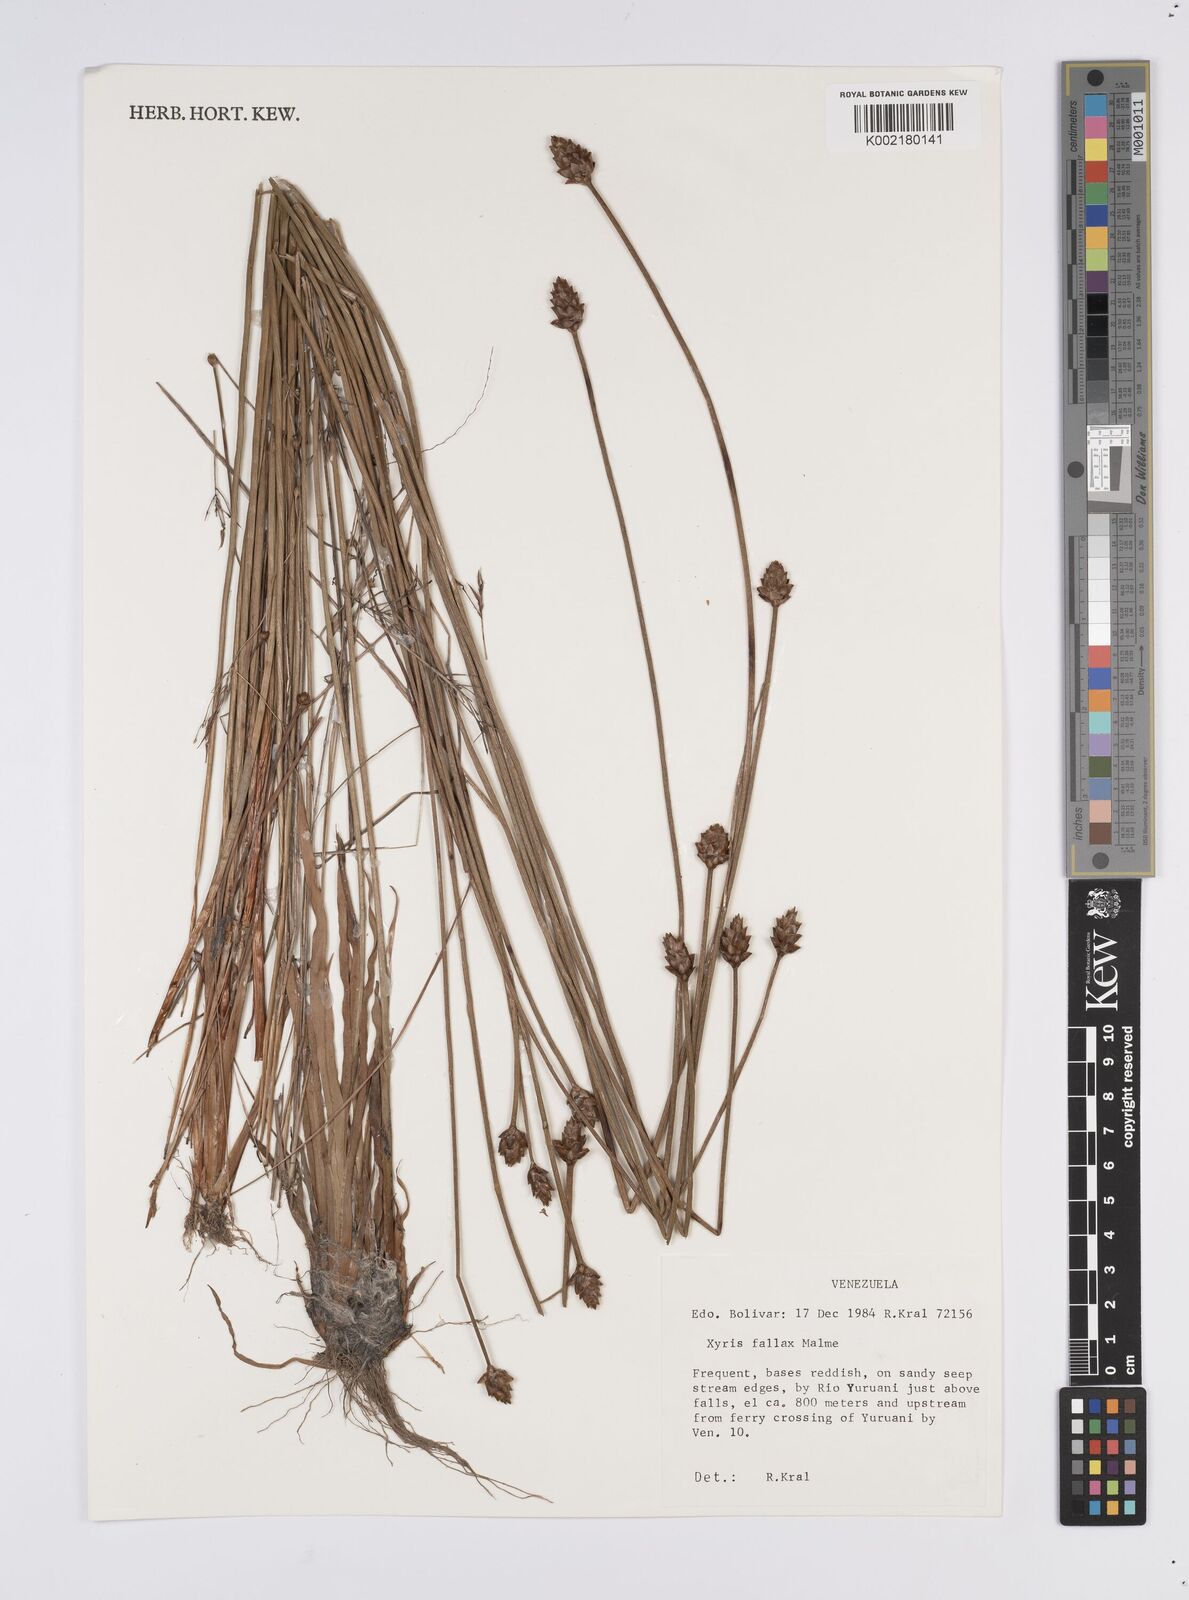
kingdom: Plantae
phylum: Tracheophyta
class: Liliopsida
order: Poales
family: Xyridaceae
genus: Xyris
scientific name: Xyris fallax
